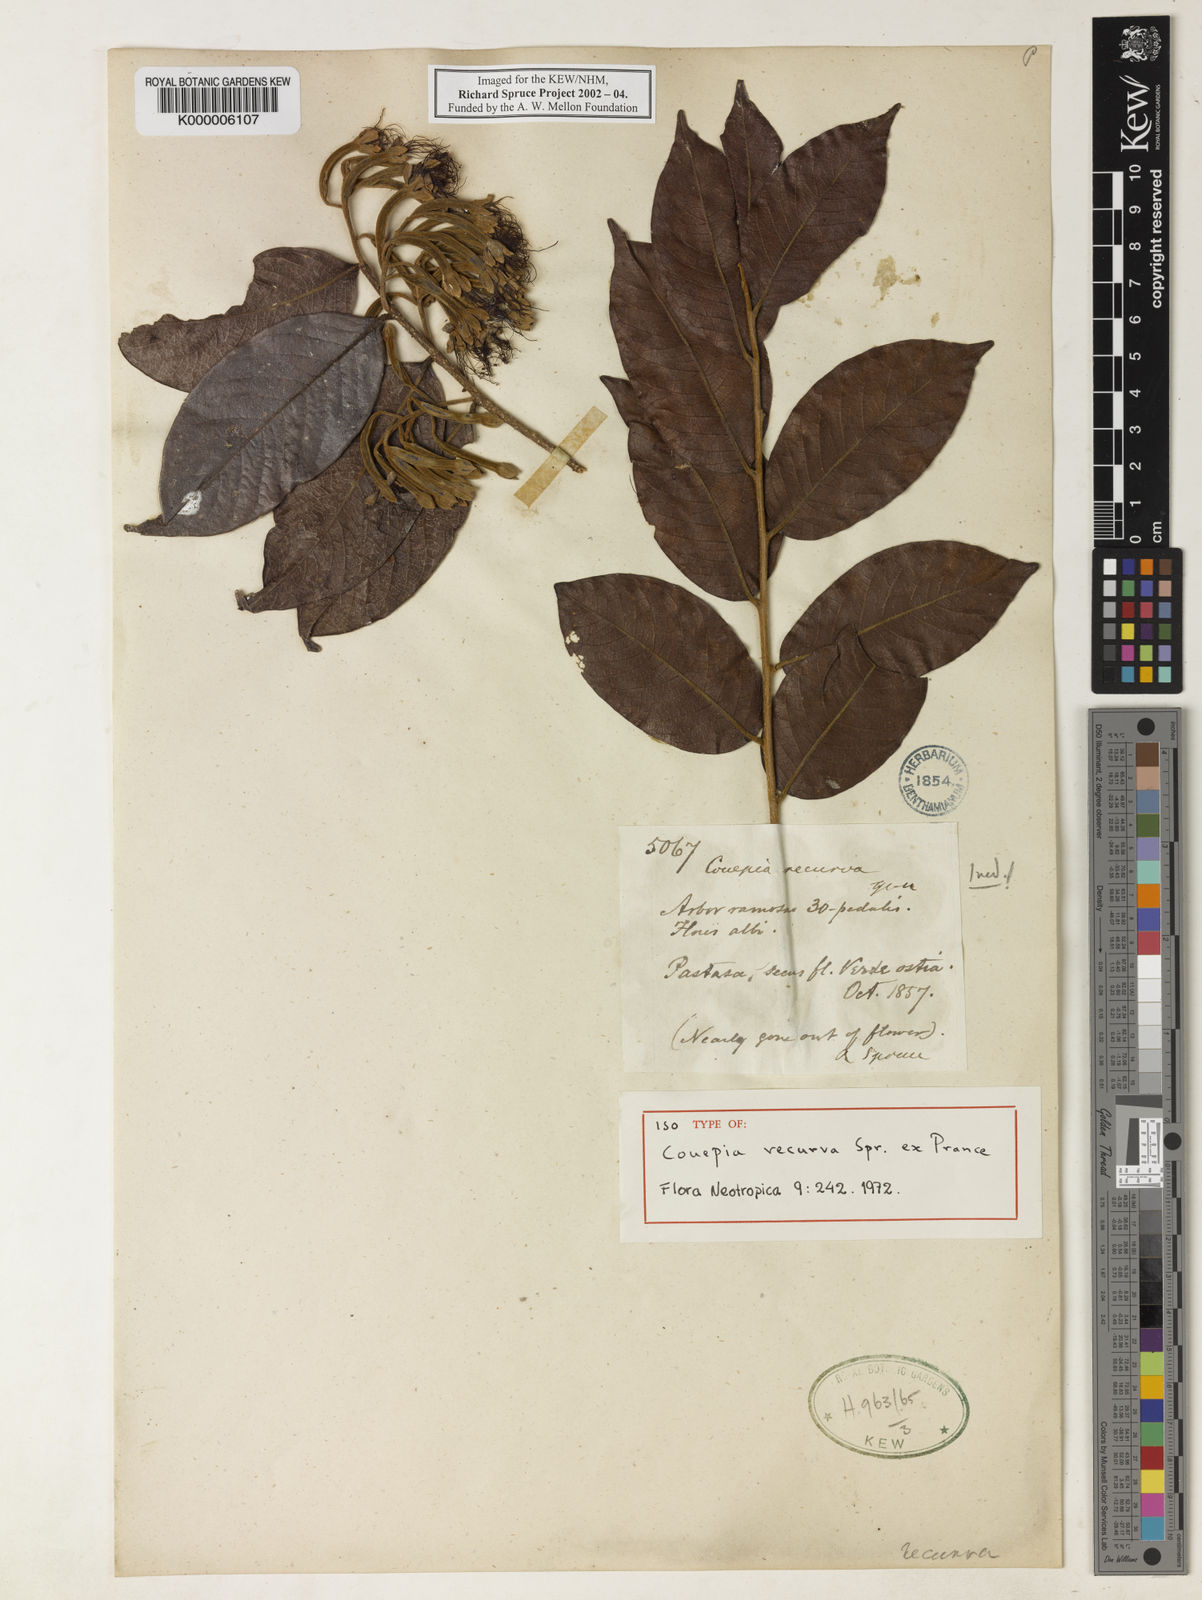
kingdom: Plantae
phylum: Tracheophyta
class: Magnoliopsida
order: Malpighiales
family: Chrysobalanaceae
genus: Hirtella
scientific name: Hirtella recurva
